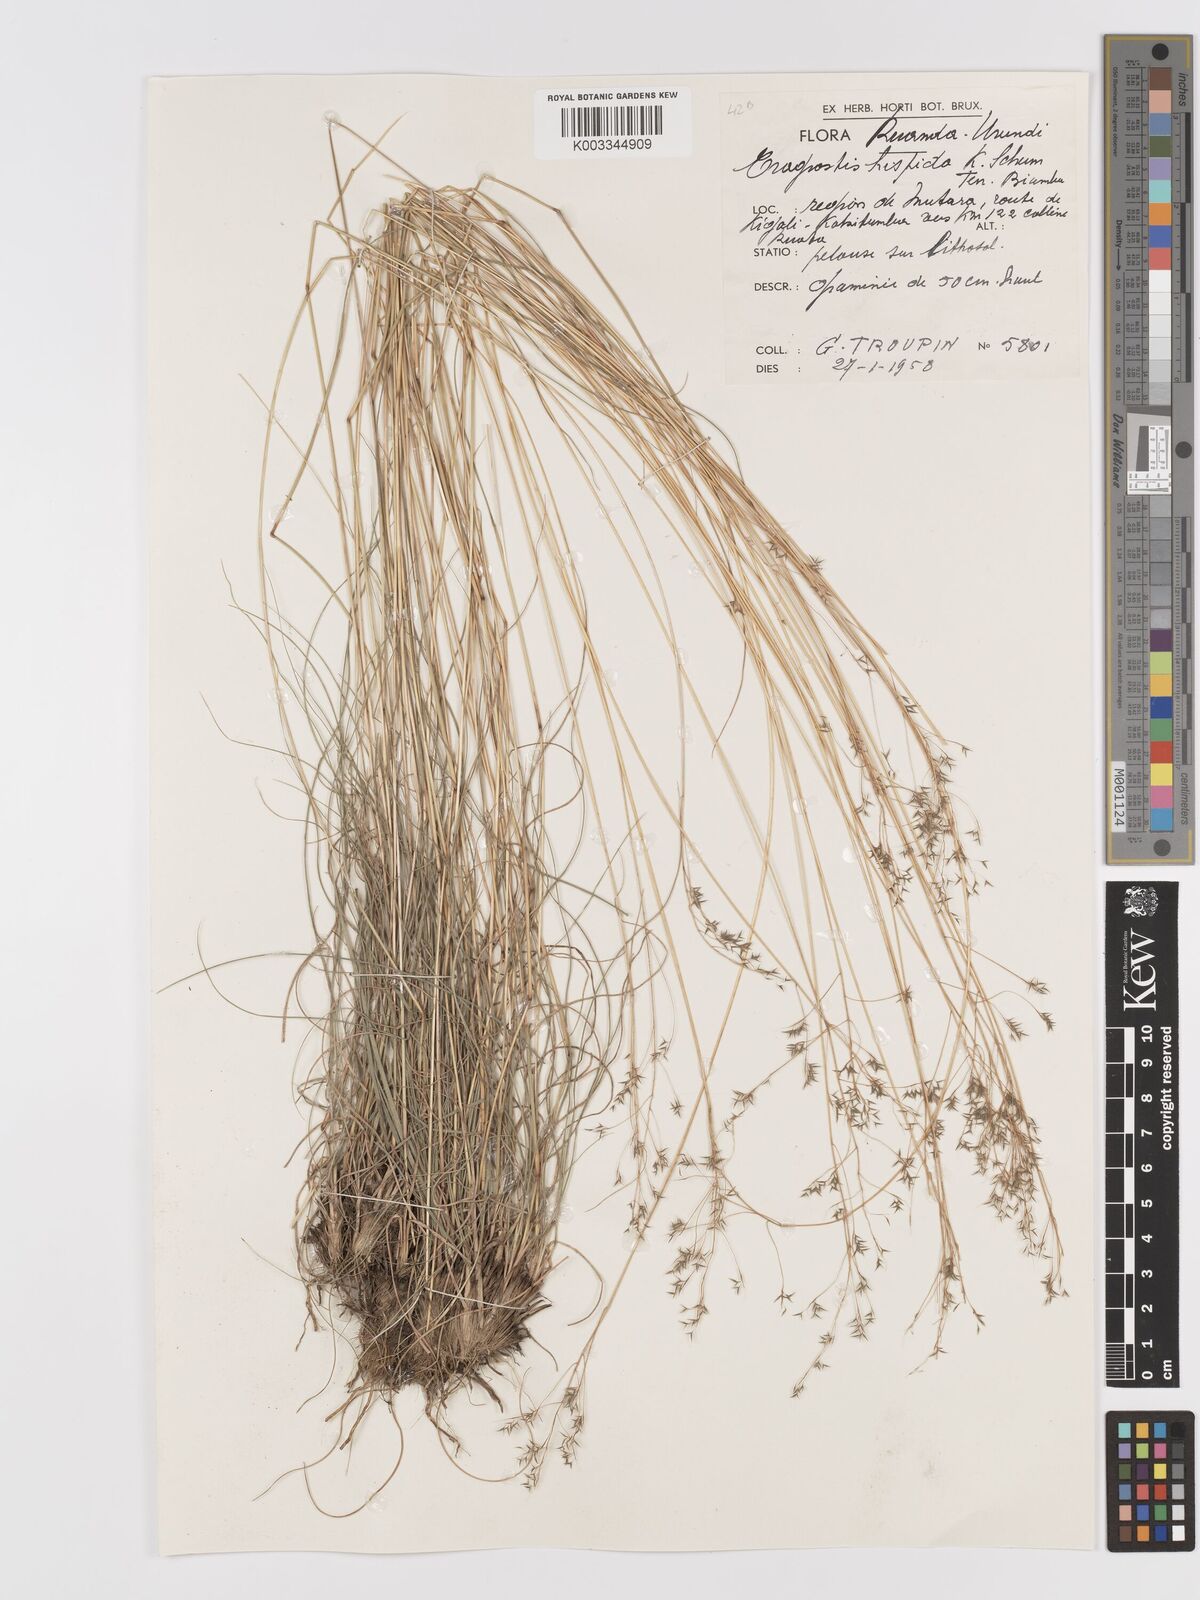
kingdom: Plantae
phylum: Tracheophyta
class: Liliopsida
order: Poales
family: Poaceae
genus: Eragrostis
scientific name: Eragrostis hispida
